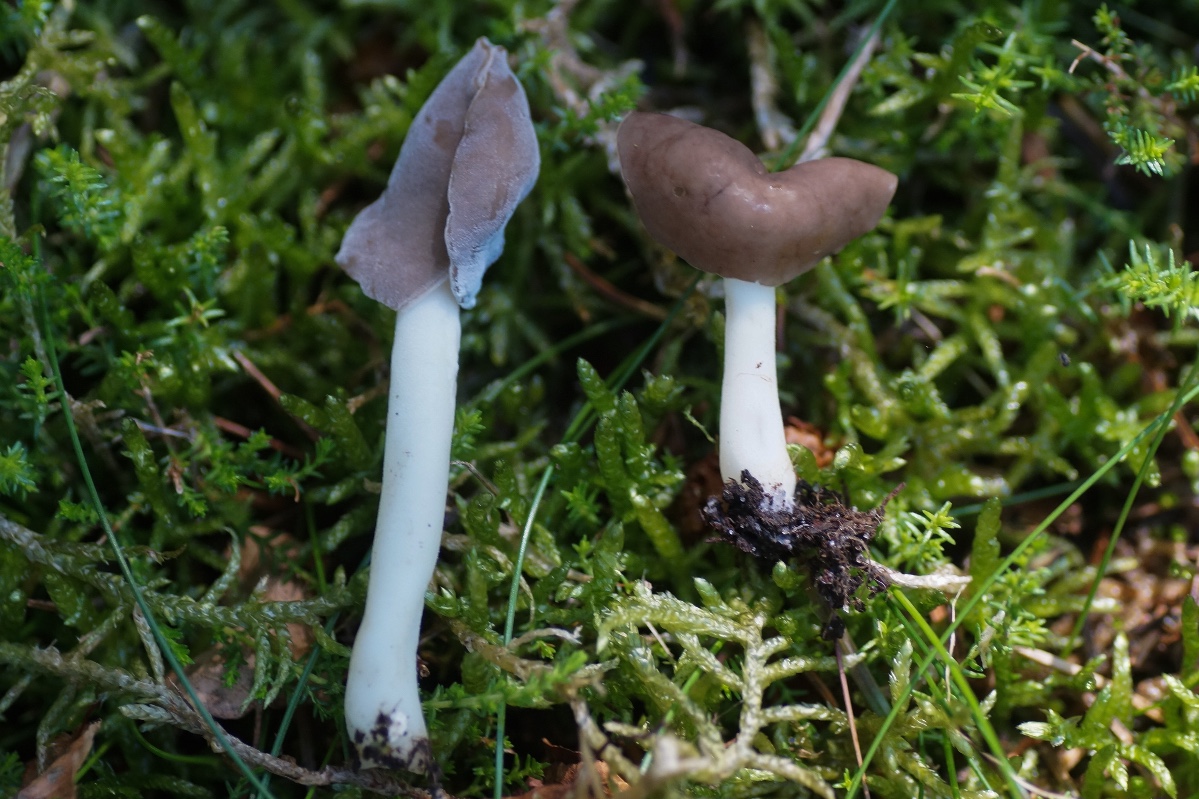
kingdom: Fungi
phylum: Ascomycota
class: Pezizomycetes
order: Pezizales
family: Helvellaceae
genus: Helvella
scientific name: Helvella
